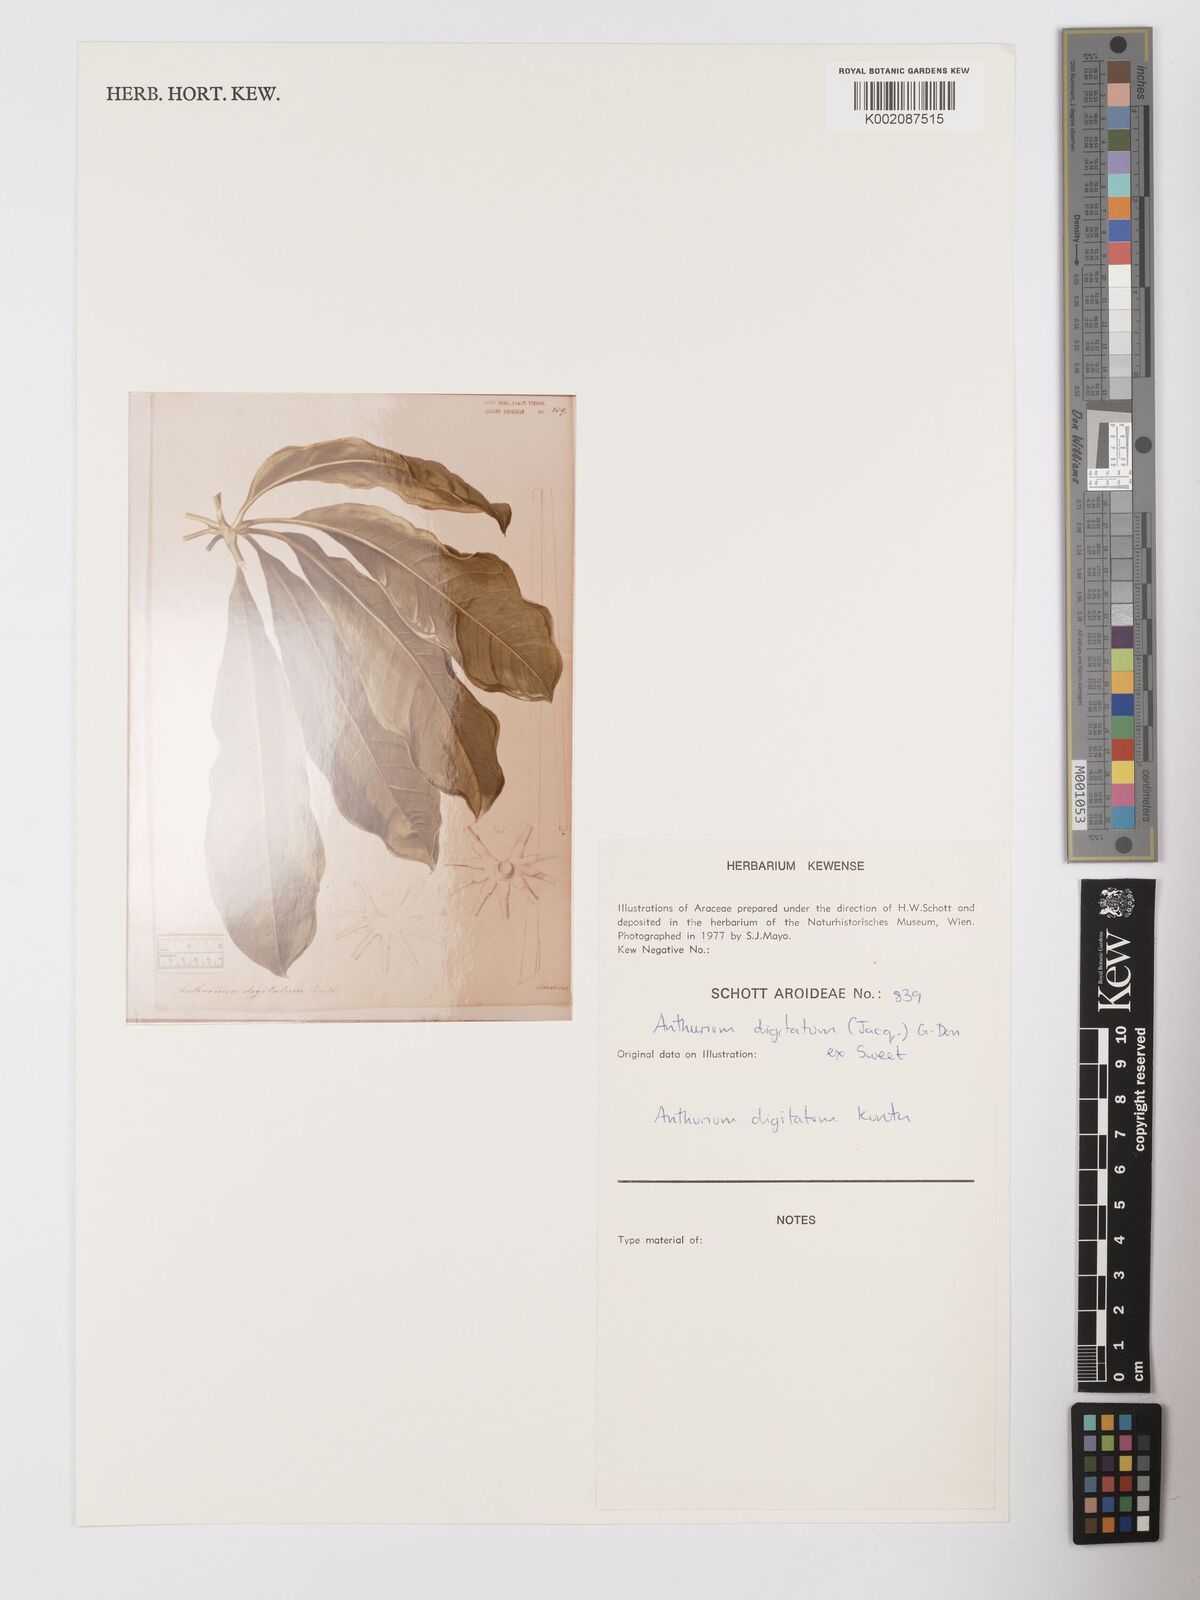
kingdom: Plantae
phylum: Tracheophyta
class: Liliopsida
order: Alismatales
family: Araceae
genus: Anthurium
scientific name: Anthurium digitatum
